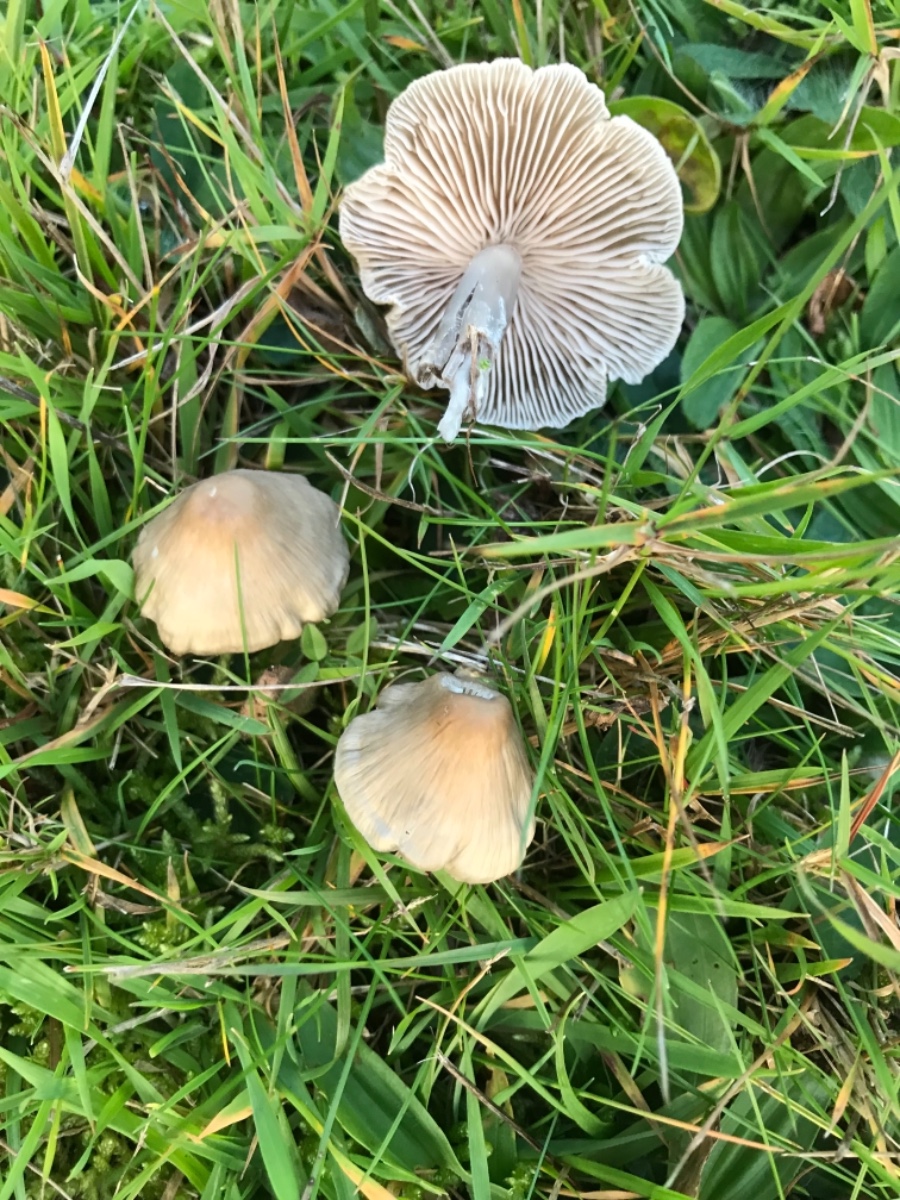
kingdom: Fungi
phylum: Basidiomycota
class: Agaricomycetes
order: Agaricales
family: Mycenaceae
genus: Mycena
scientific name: Mycena galericulata
